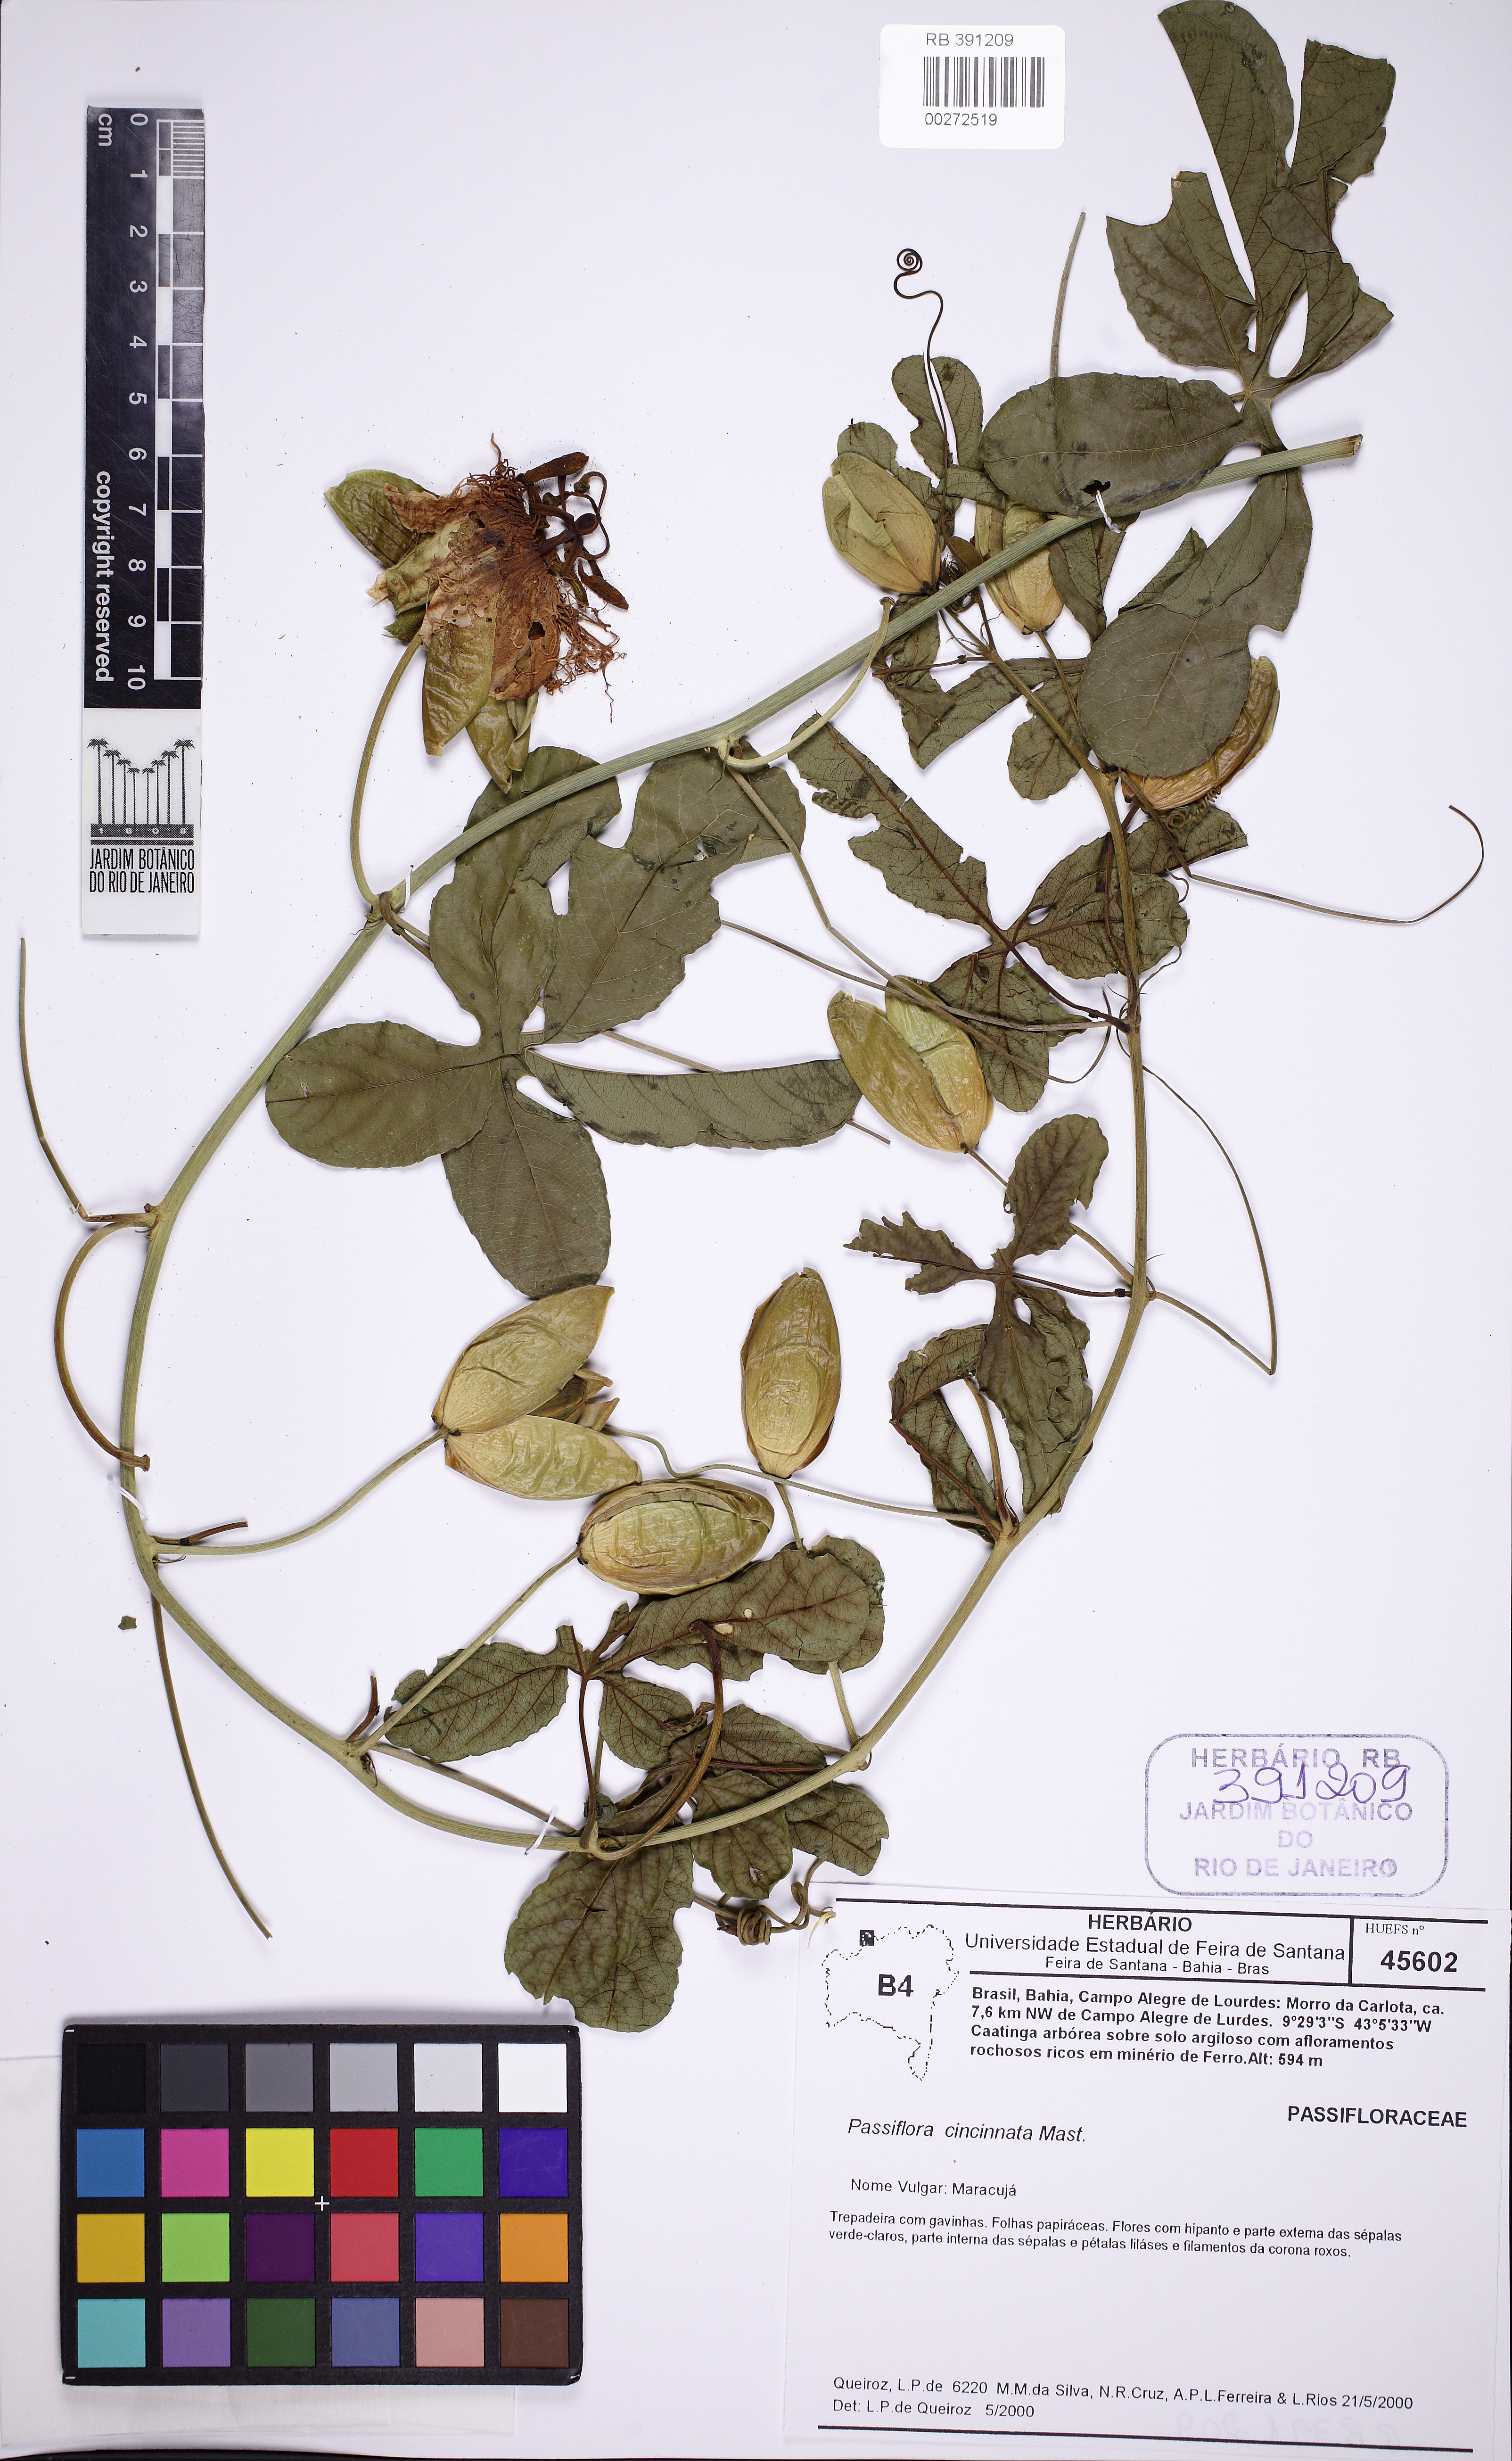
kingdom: Plantae
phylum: Tracheophyta
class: Magnoliopsida
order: Malpighiales
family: Passifloraceae
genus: Passiflora
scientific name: Passiflora cincinnata
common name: Crato passionvine
